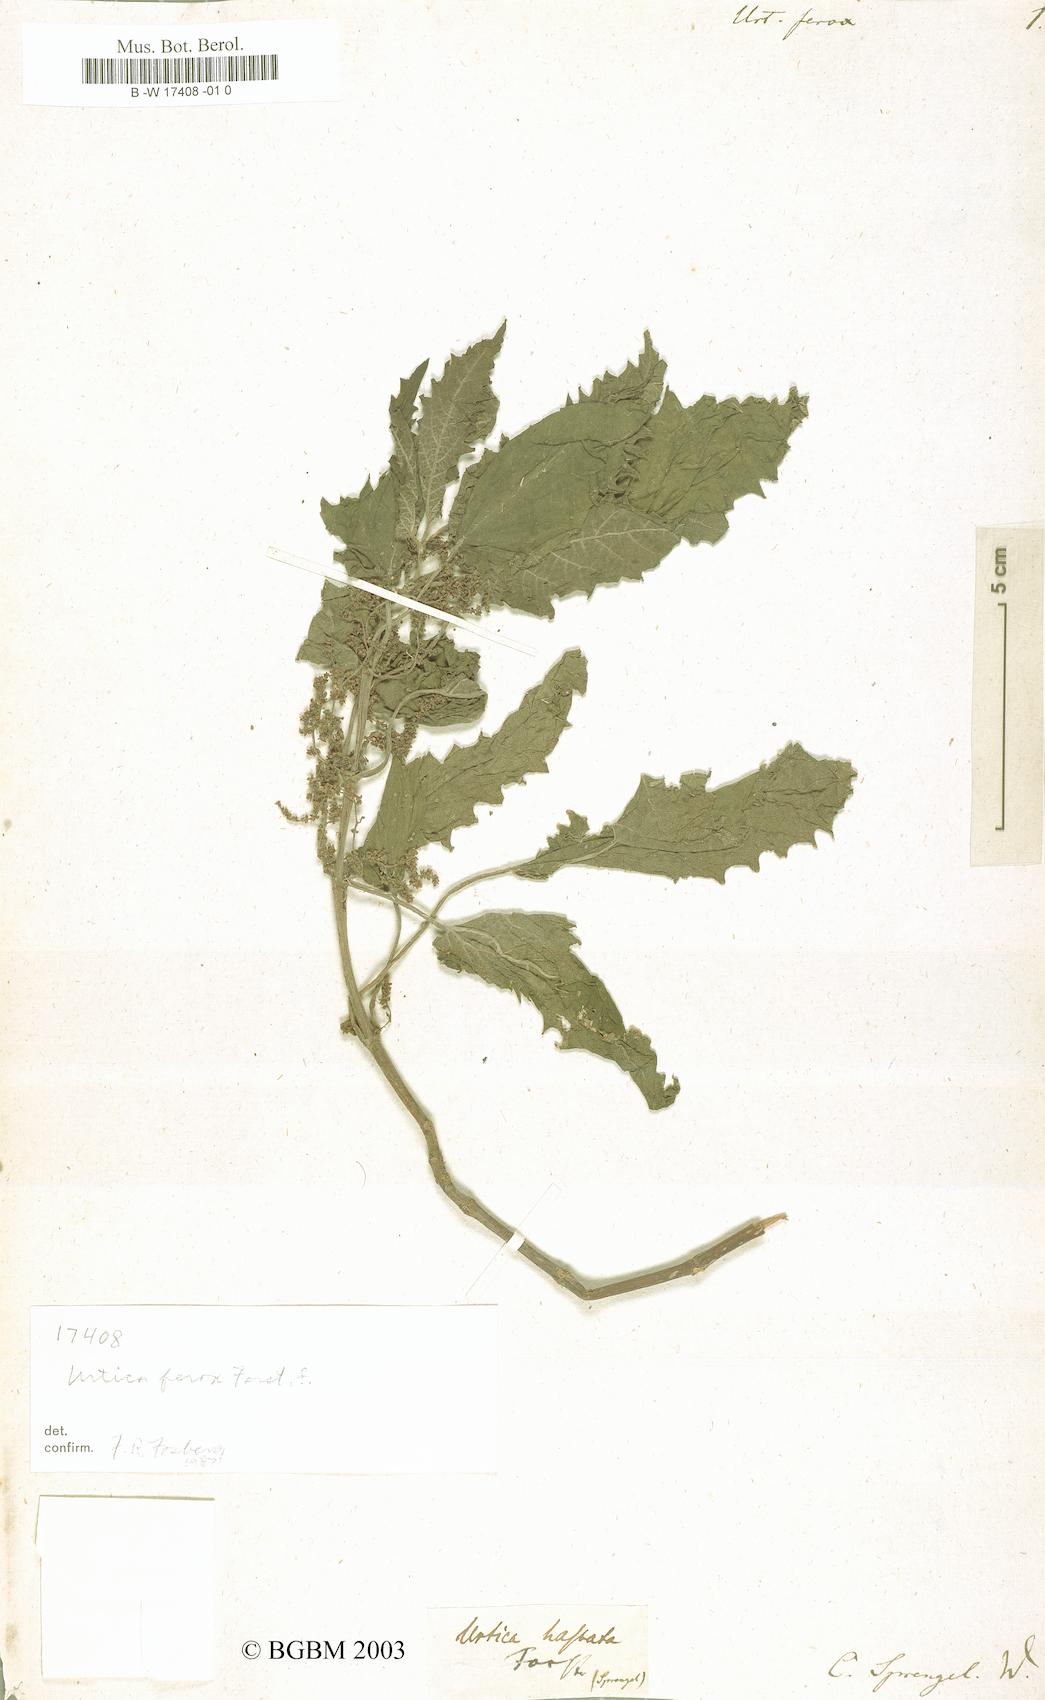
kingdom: Plantae
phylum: Tracheophyta
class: Magnoliopsida
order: Rosales
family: Urticaceae
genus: Urtica
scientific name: Urtica ferox
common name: Tree nettle
